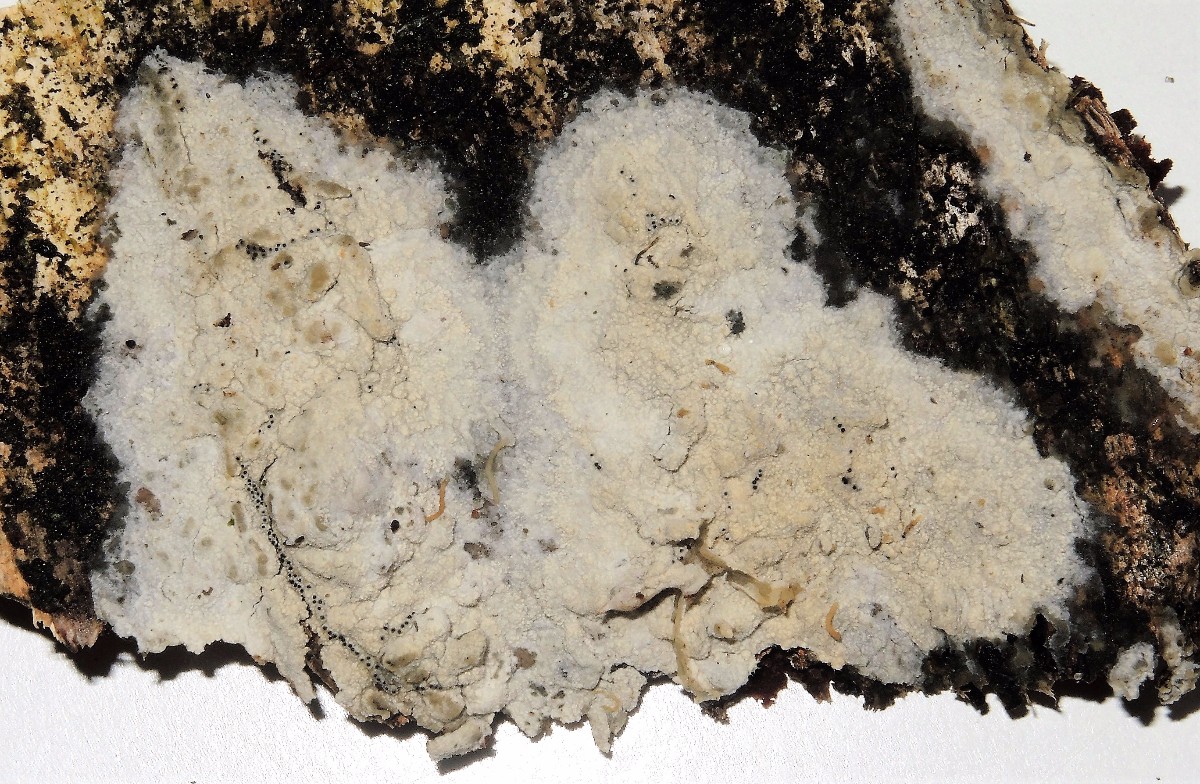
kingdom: Fungi
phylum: Basidiomycota
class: Agaricomycetes
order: Polyporales
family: Hyphodermataceae
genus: Hyphoderma
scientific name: Hyphoderma setigerum
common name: håret kalkskind
